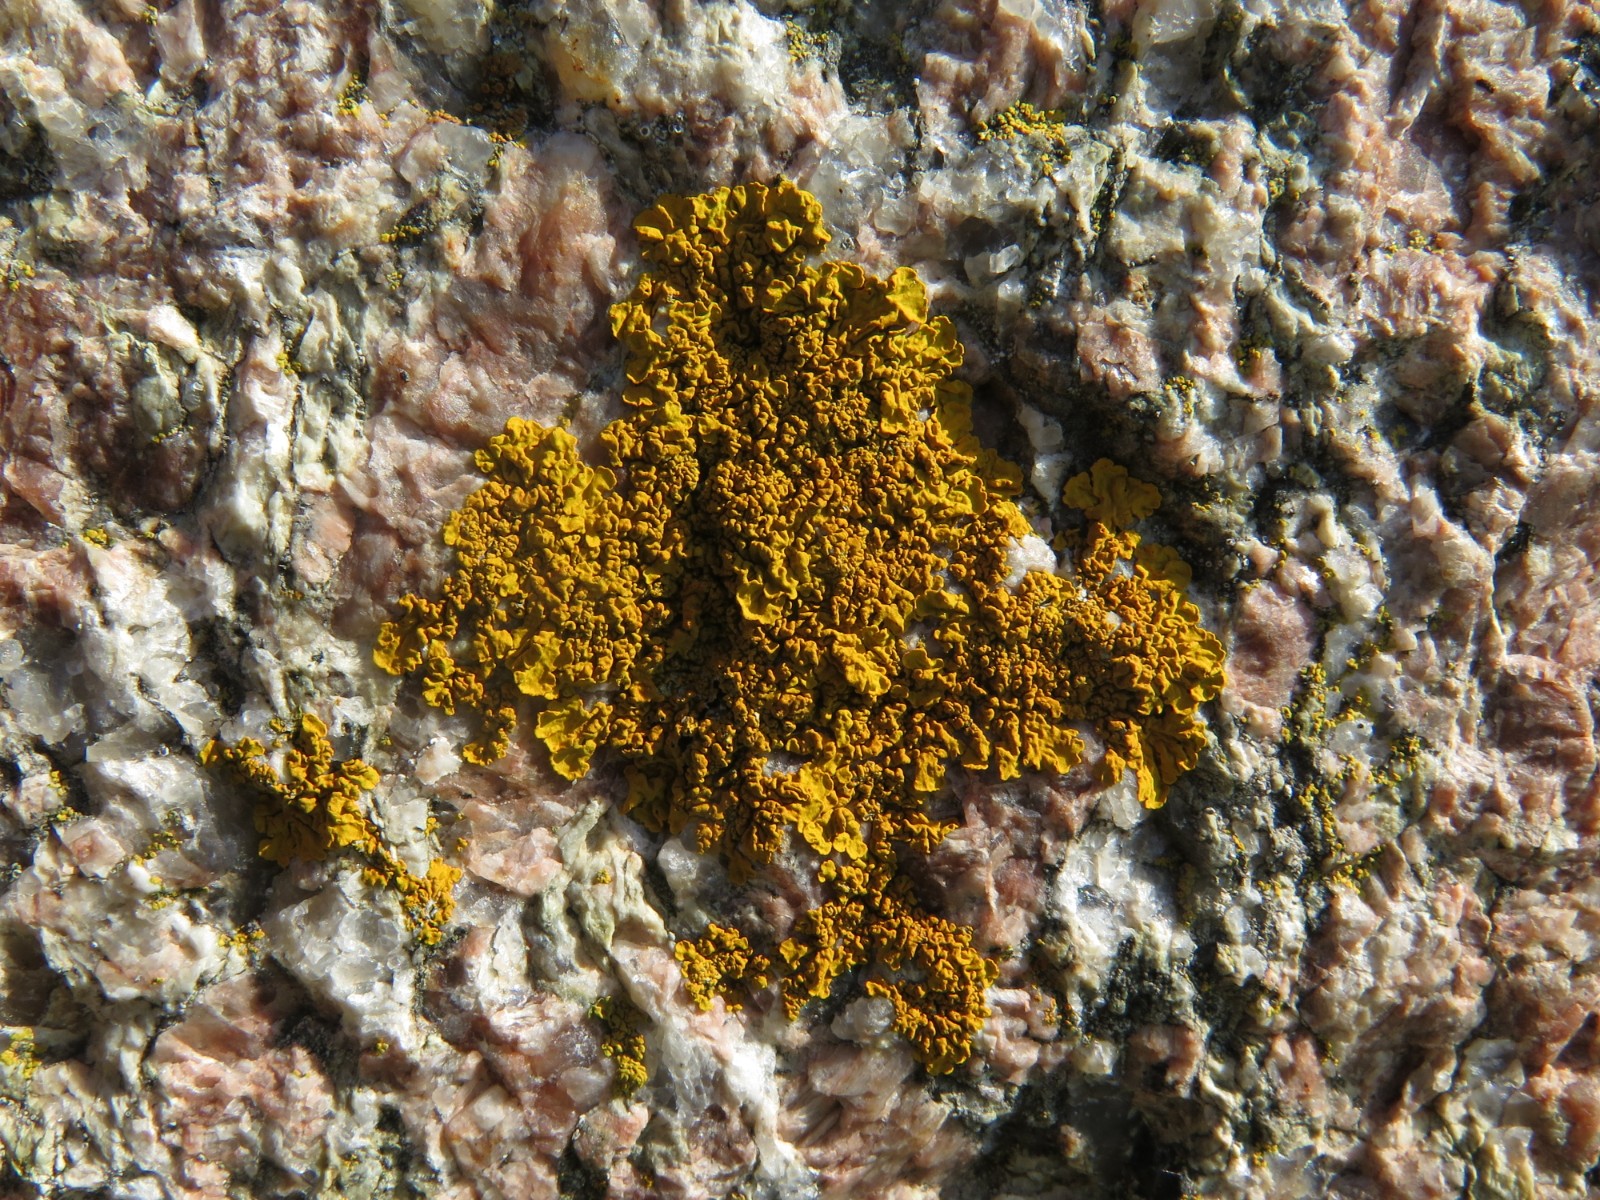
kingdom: Fungi
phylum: Ascomycota
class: Lecanoromycetes
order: Teloschistales
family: Teloschistaceae
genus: Xanthoria
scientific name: Xanthoria calcicola
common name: vortet væggelav
